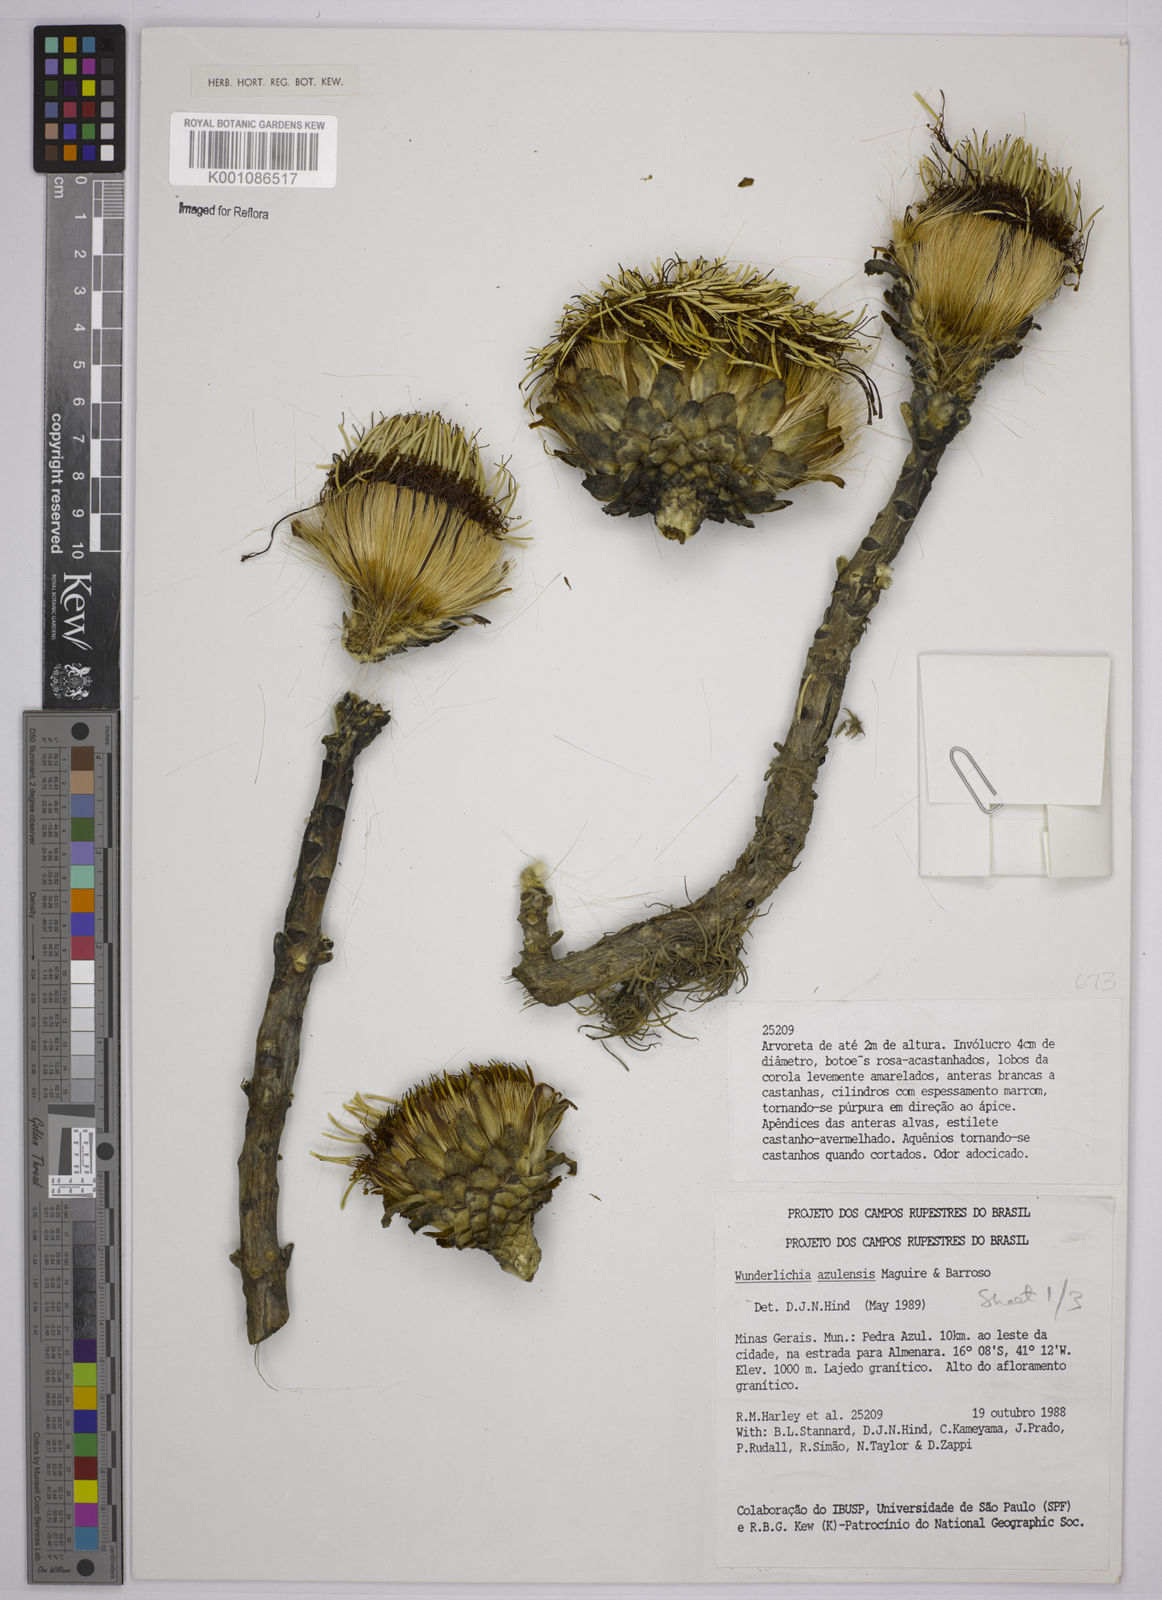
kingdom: Plantae
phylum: Tracheophyta
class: Magnoliopsida
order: Asterales
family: Asteraceae
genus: Wunderlichia
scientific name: Wunderlichia azulensis
